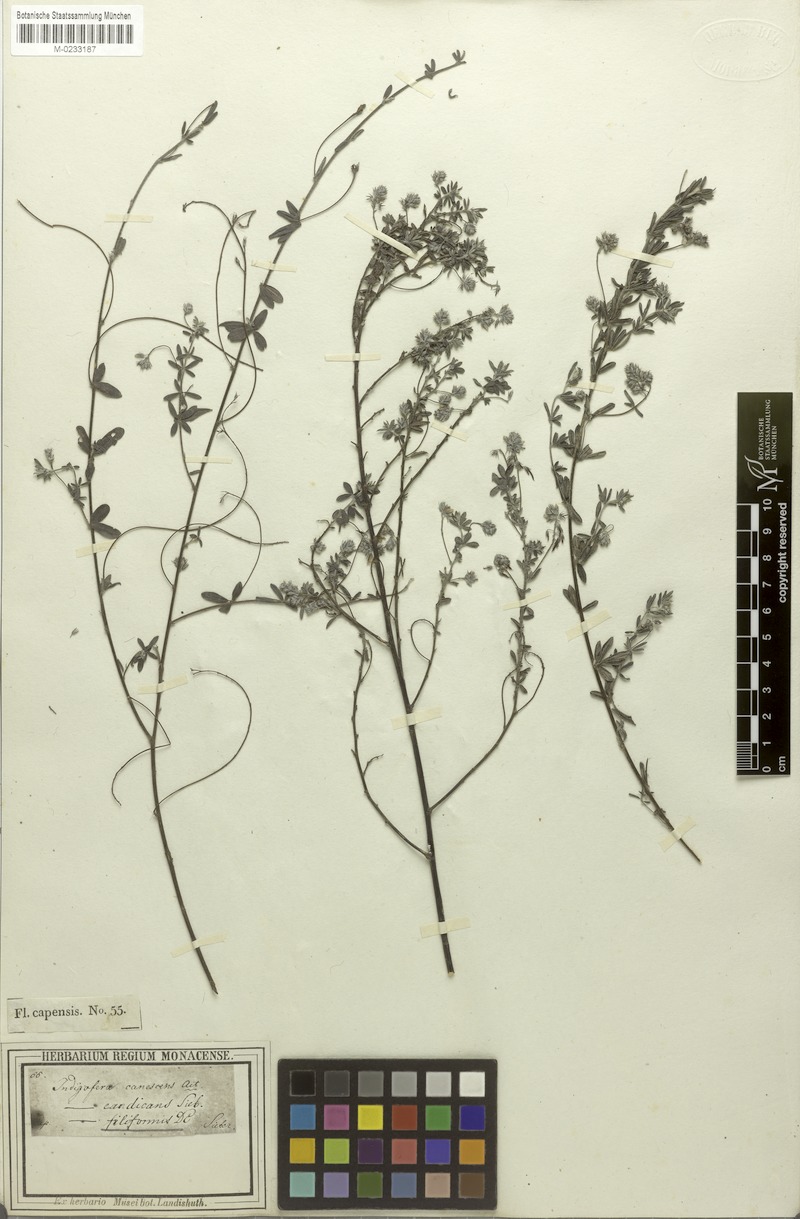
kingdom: Plantae
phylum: Tracheophyta
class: Magnoliopsida
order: Fabales
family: Fabaceae
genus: Indigofera
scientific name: Indigofera filiformis
